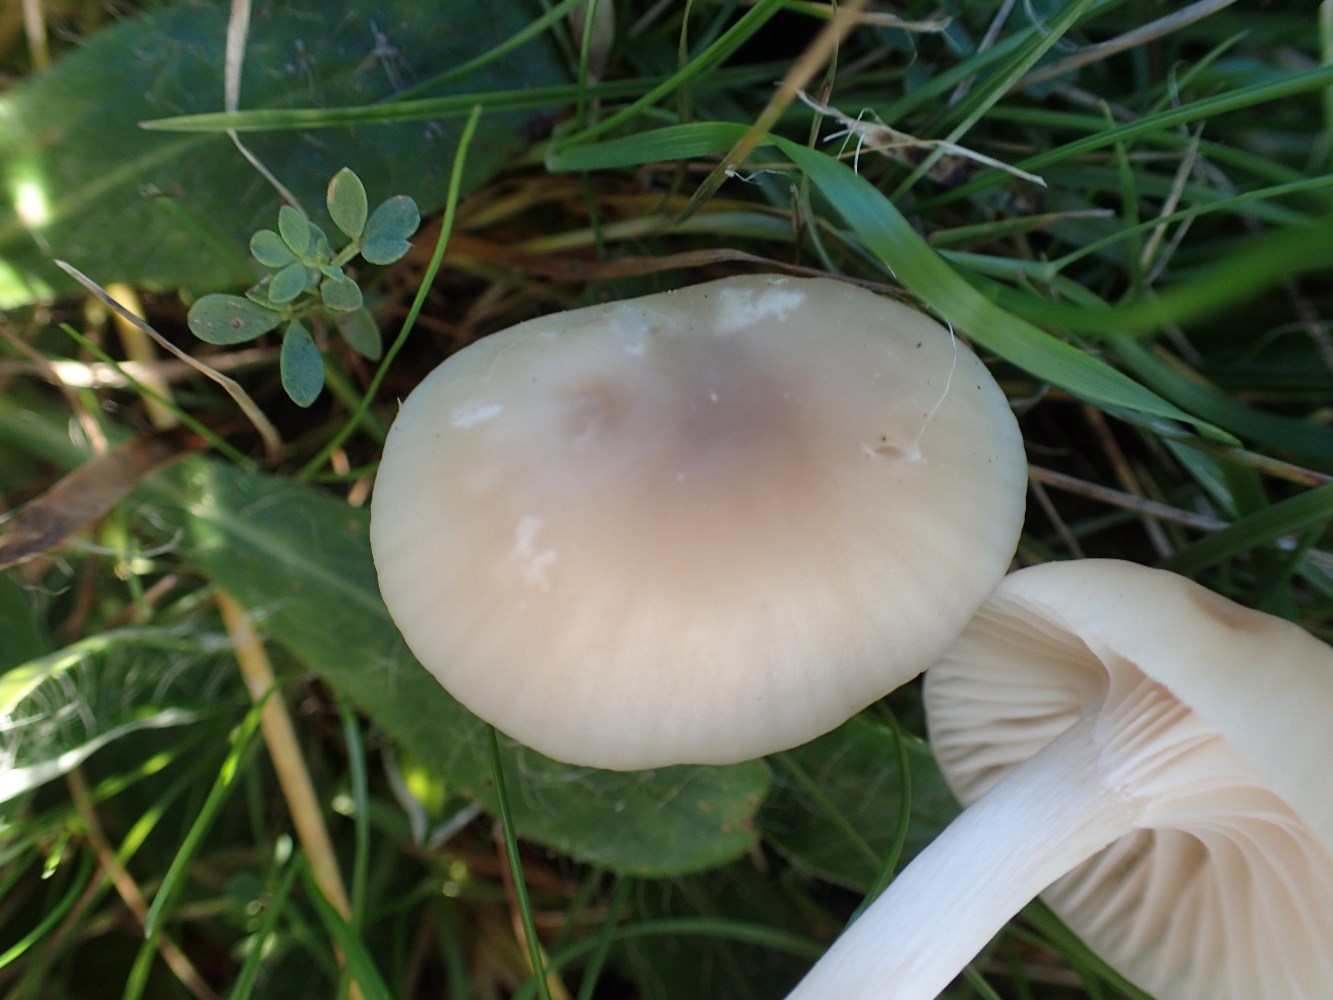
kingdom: Fungi
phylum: Basidiomycota
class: Agaricomycetes
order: Agaricales
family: Hygrophoraceae
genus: Cuphophyllus
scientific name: Cuphophyllus virgineus
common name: isabella-vokshat
